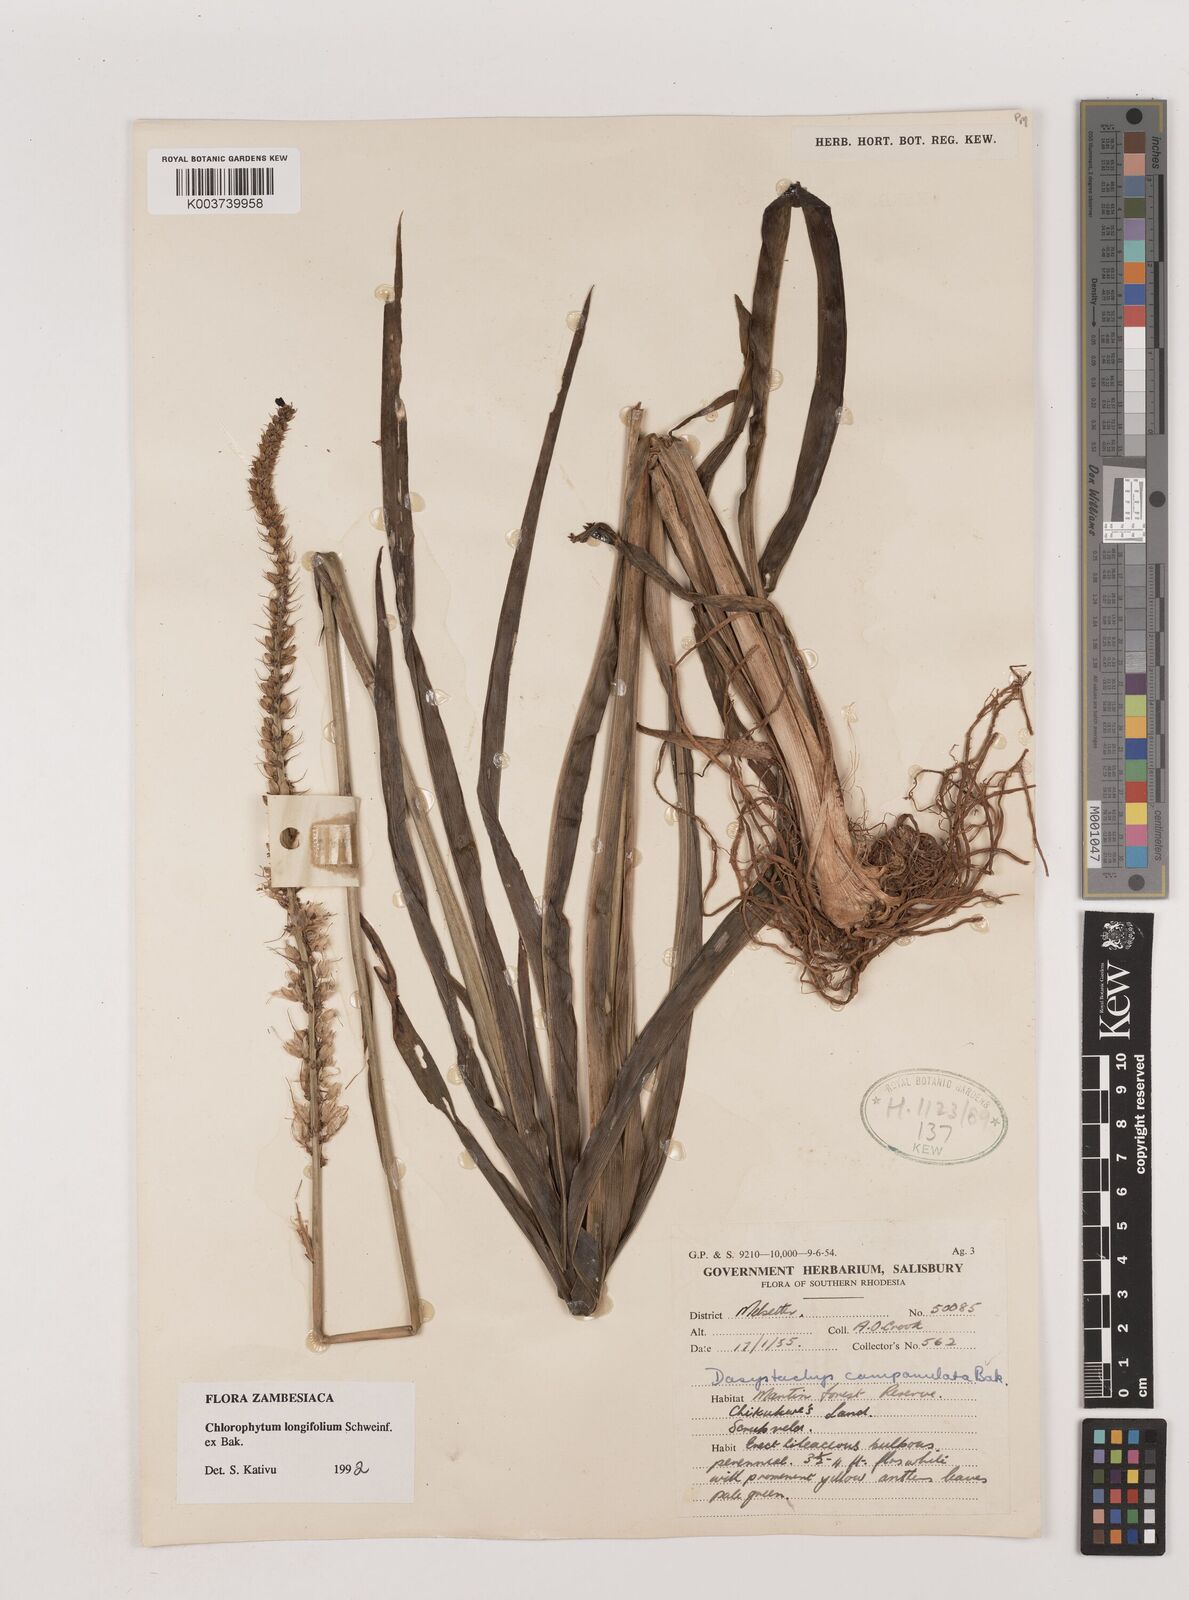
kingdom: Plantae
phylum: Tracheophyta
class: Liliopsida
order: Asparagales
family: Asparagaceae
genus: Chlorophytum
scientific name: Chlorophytum longifolium
